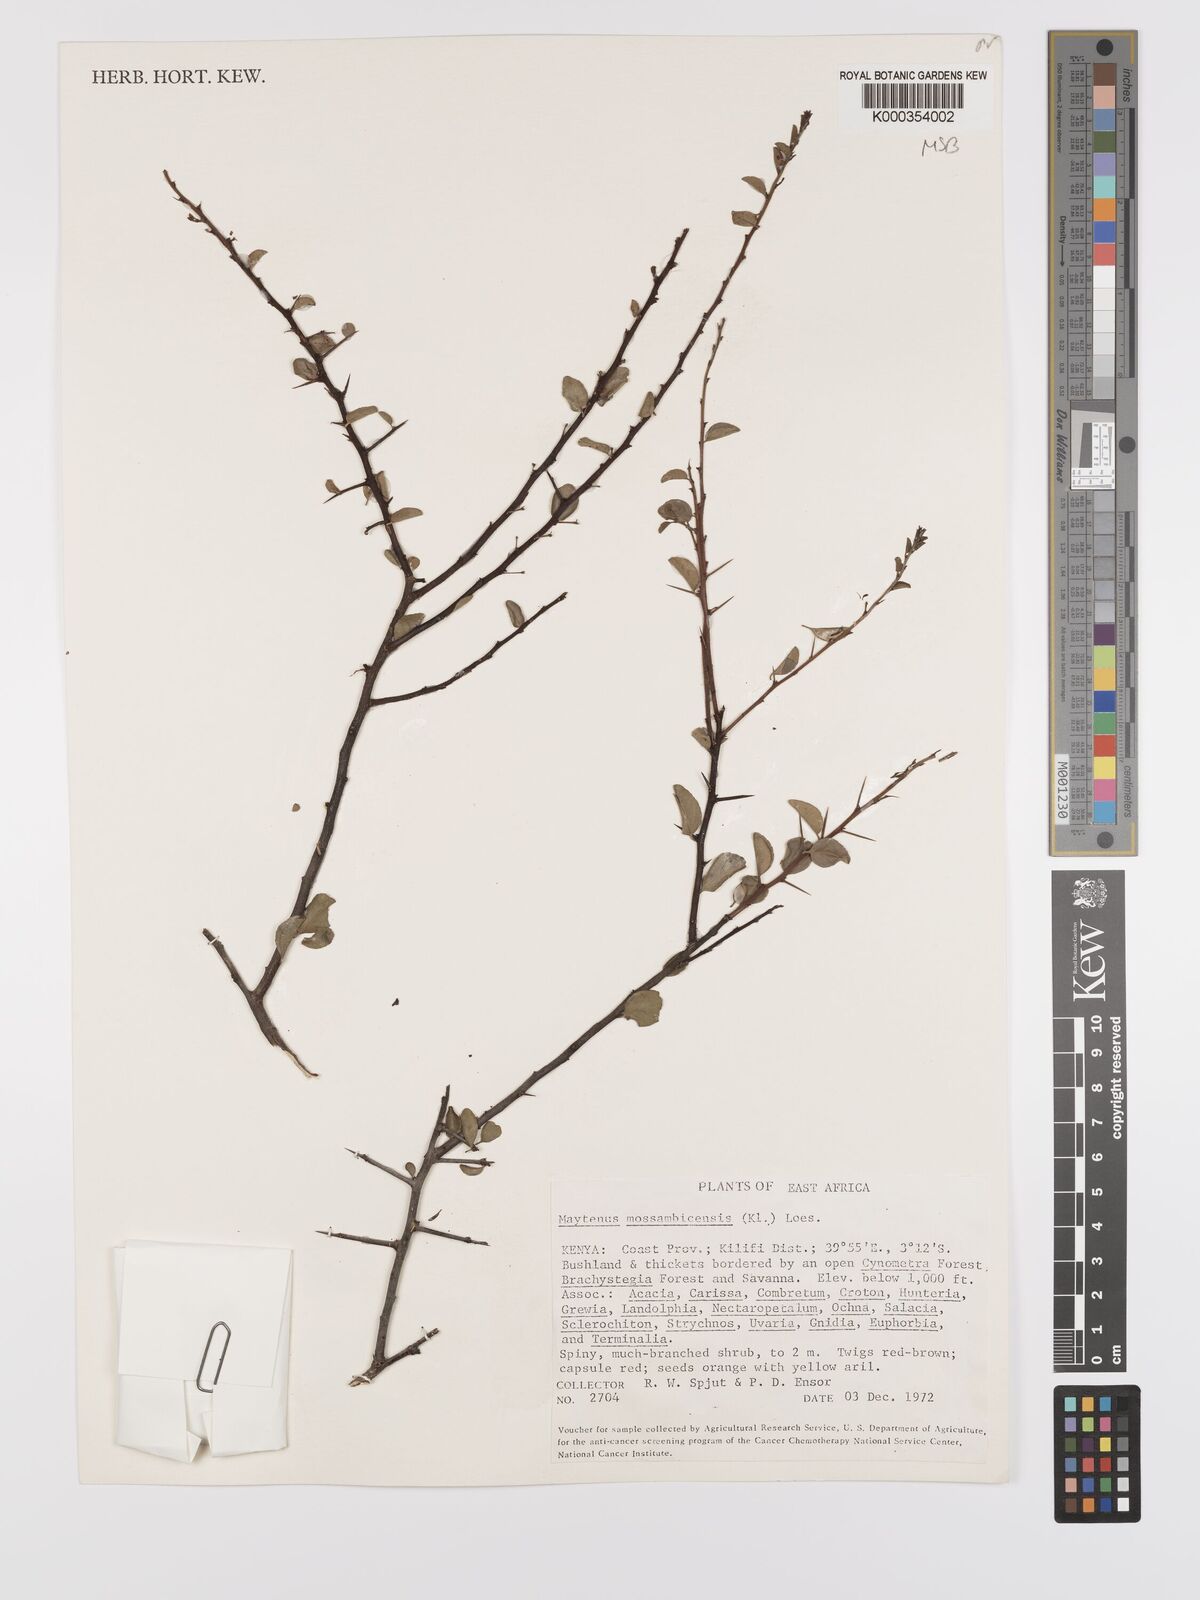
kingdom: Plantae
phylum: Tracheophyta
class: Magnoliopsida
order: Celastrales
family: Celastraceae
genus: Gymnosporia
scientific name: Gymnosporia mossambicensis
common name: Black forest spike-thorn
